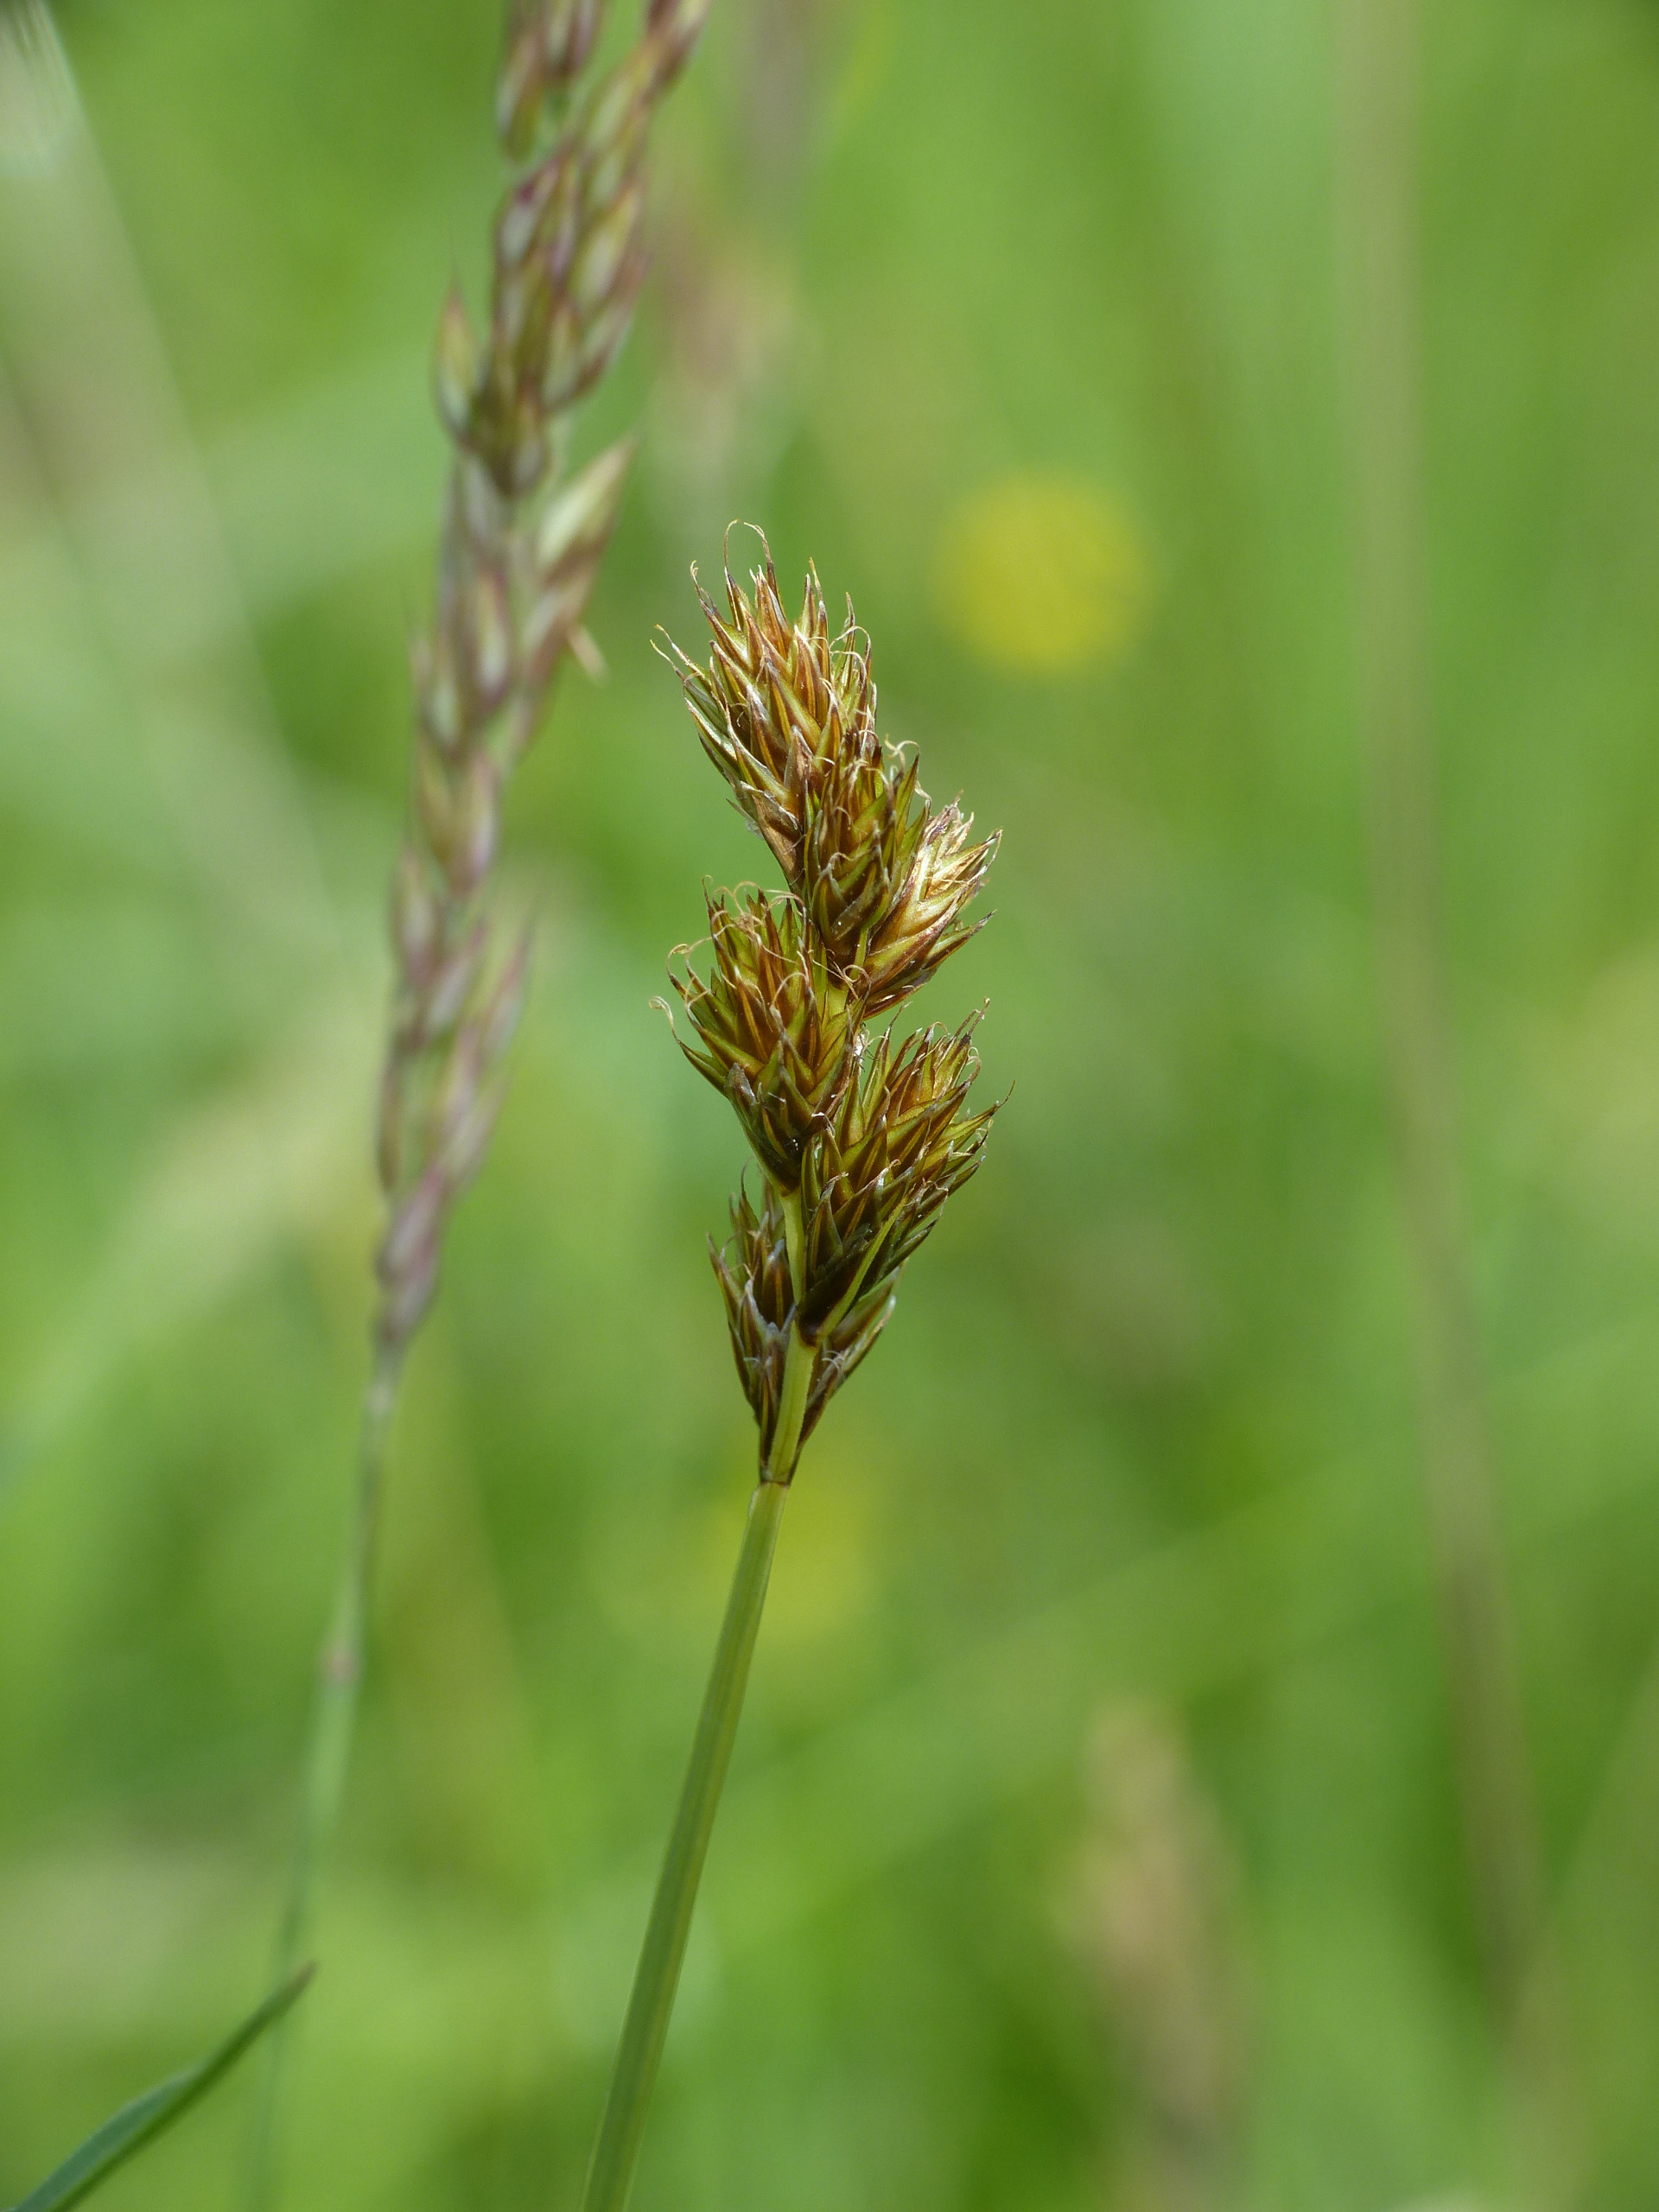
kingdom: Plantae
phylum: Tracheophyta
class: Liliopsida
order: Poales
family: Cyperaceae
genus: Carex
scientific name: Carex leporina
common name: Hare-star
